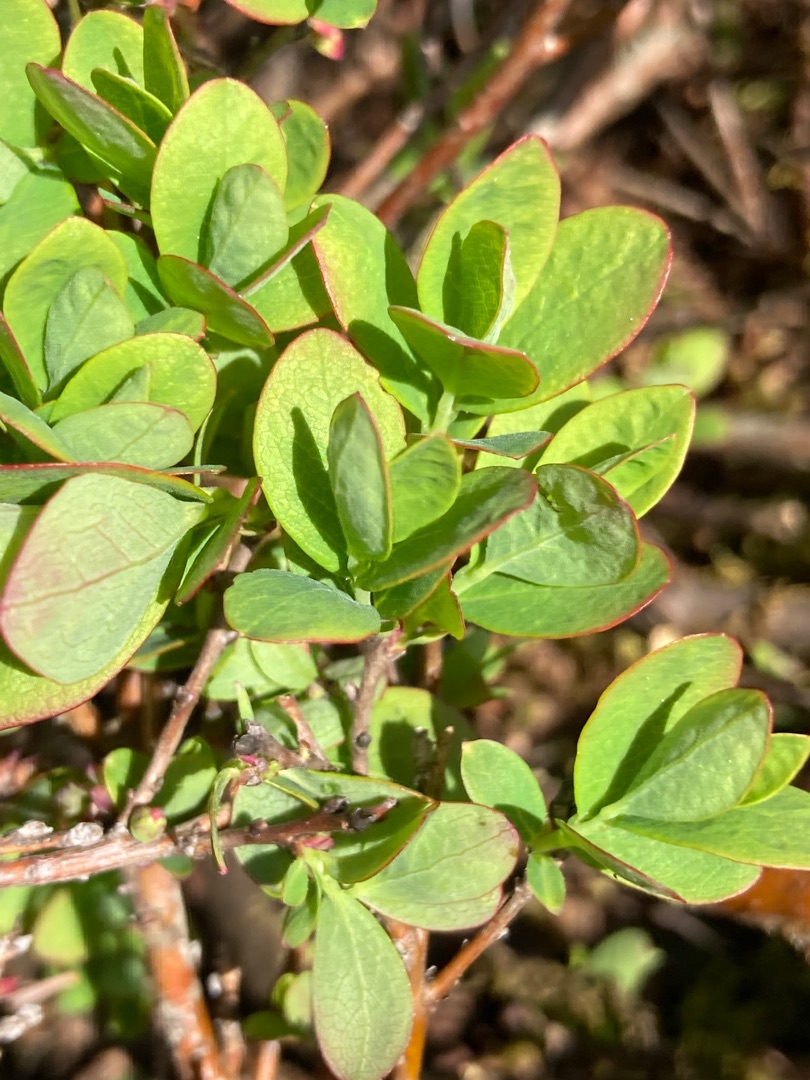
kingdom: Plantae
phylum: Tracheophyta
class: Magnoliopsida
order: Ericales
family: Ericaceae
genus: Vaccinium
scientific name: Vaccinium uliginosum
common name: Mose-bølle
